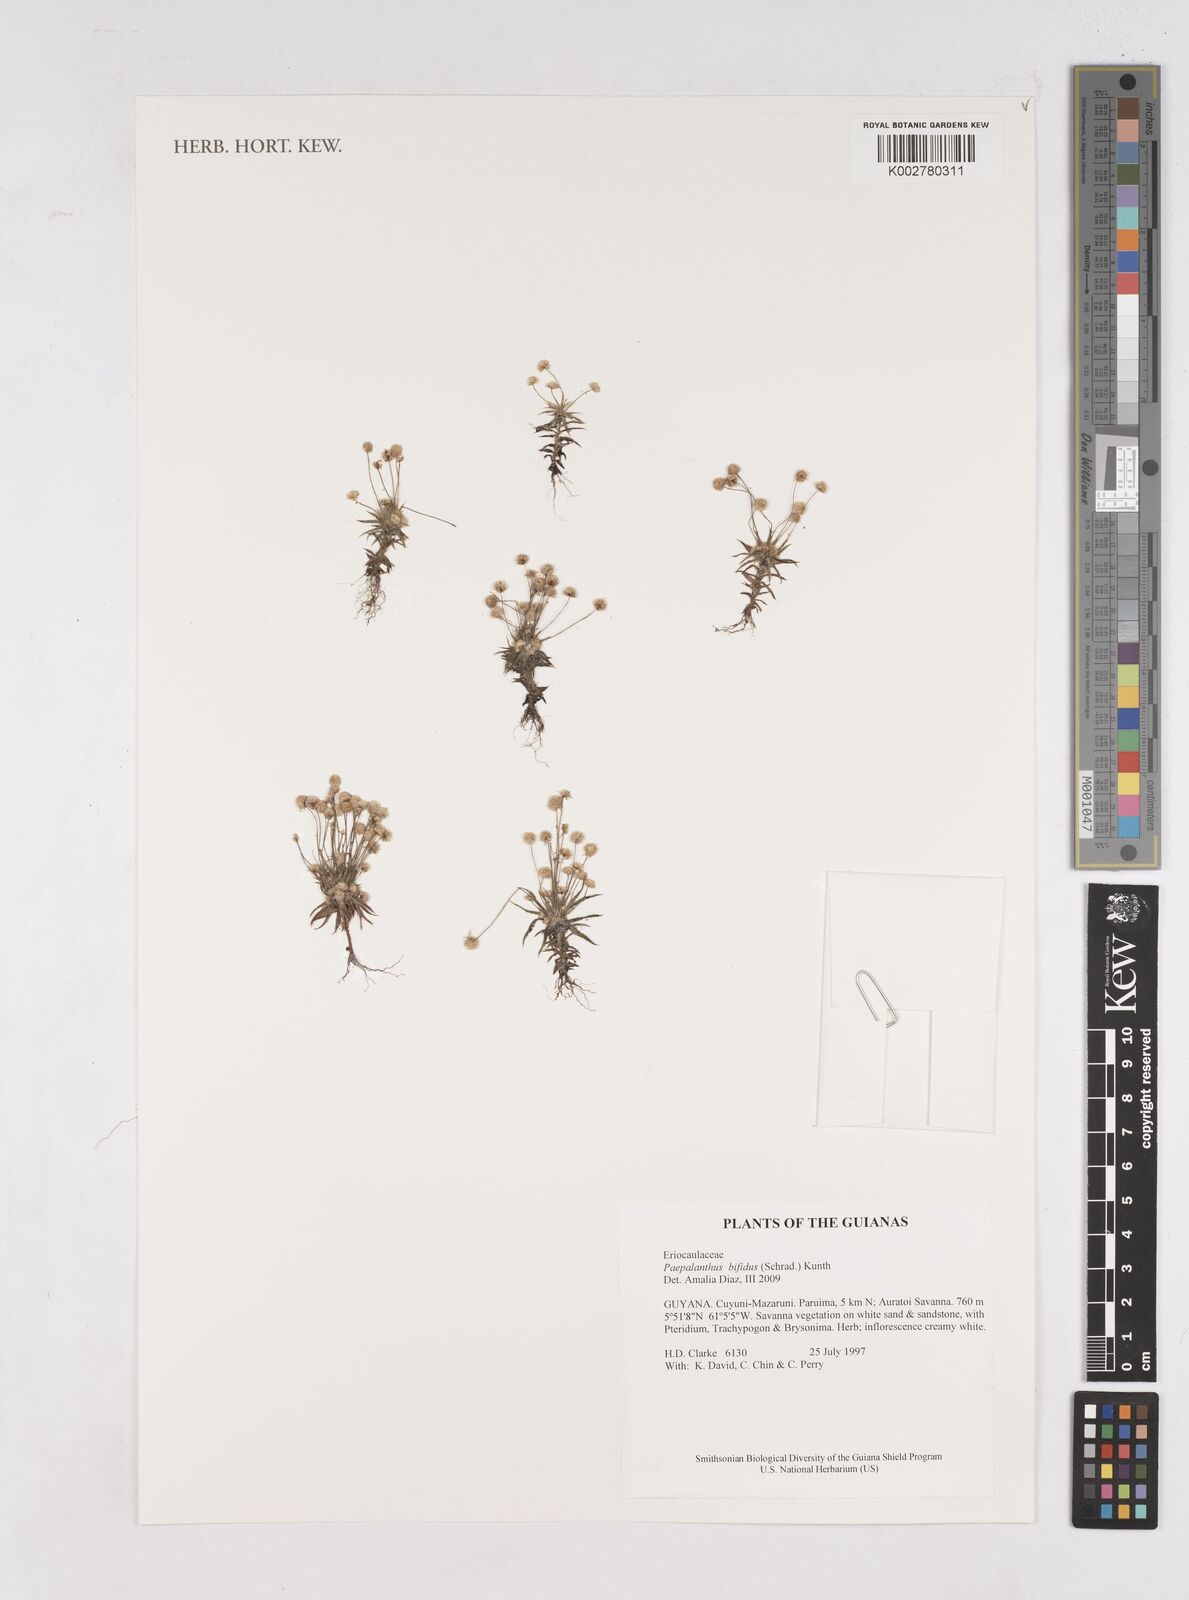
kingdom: Plantae
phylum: Tracheophyta
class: Liliopsida
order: Poales
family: Eriocaulaceae
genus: Paepalanthus
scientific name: Paepalanthus bifidus
